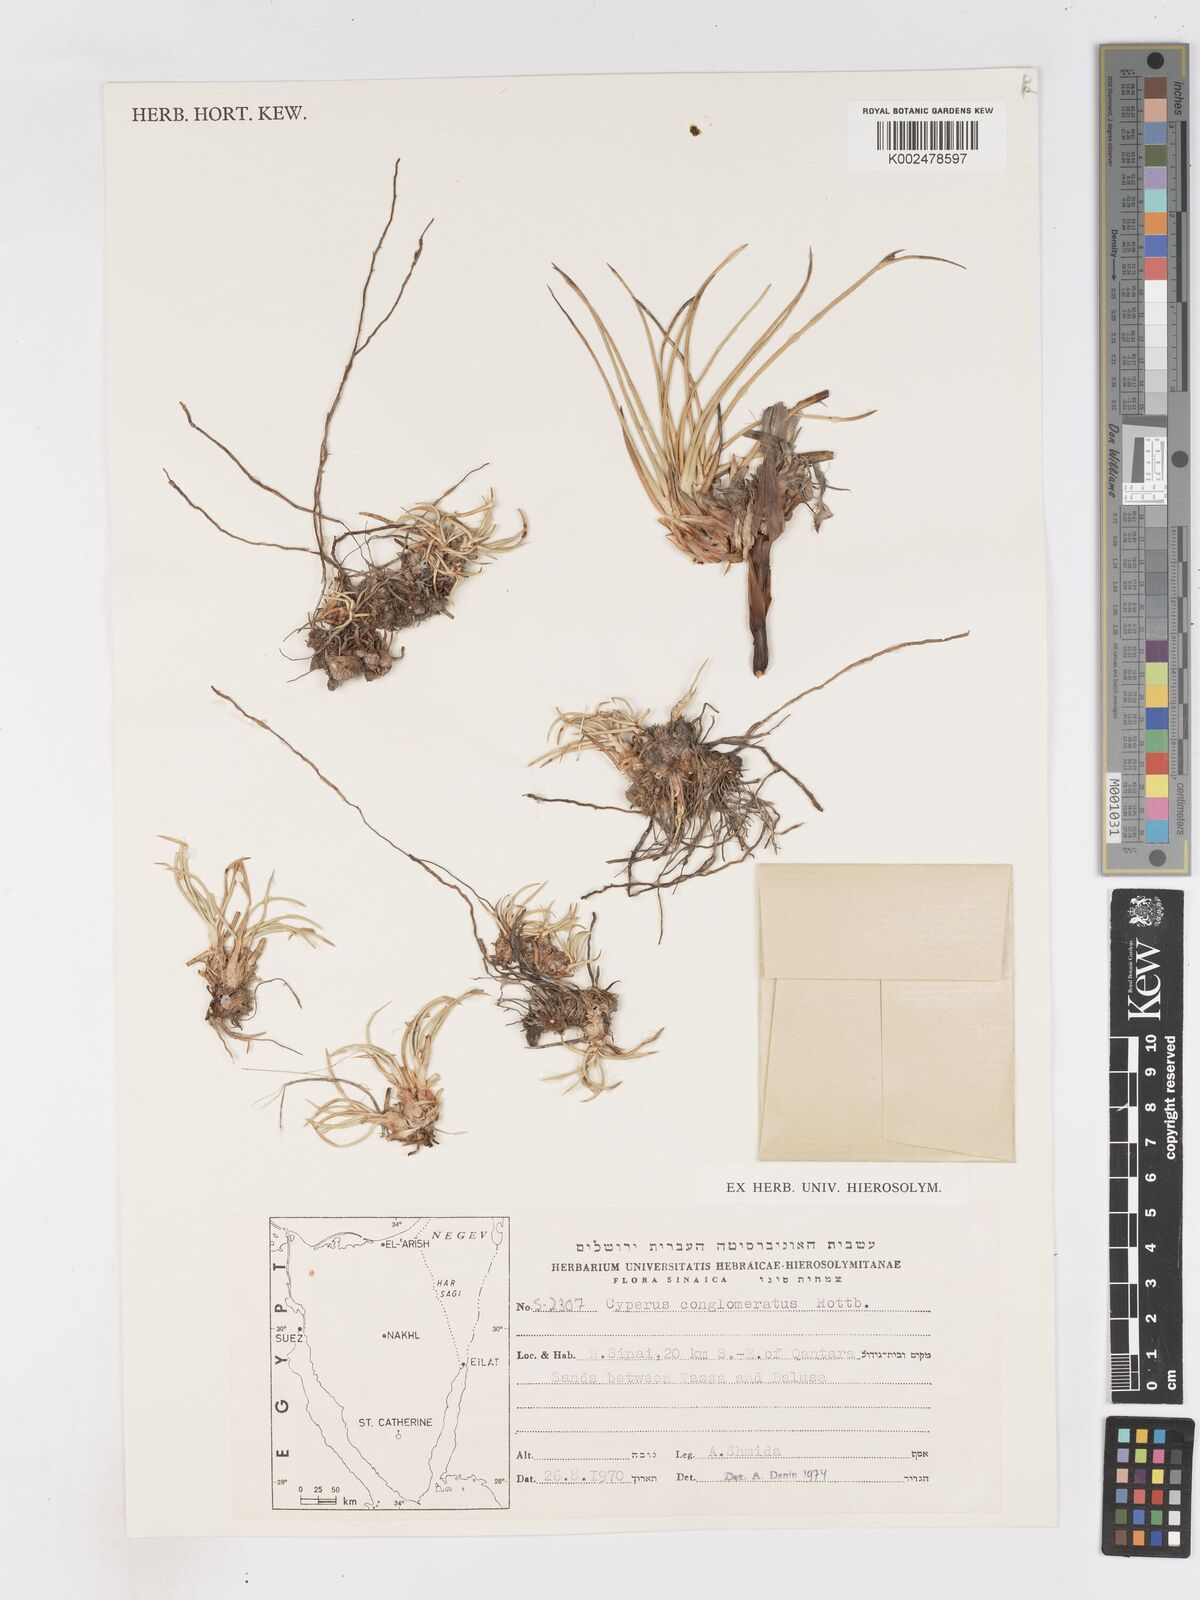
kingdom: Plantae
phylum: Tracheophyta
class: Liliopsida
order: Poales
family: Cyperaceae
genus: Cyperus
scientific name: Cyperus conglomeratus
